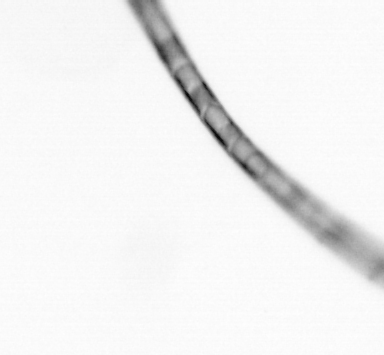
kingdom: Chromista
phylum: Ochrophyta
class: Bacillariophyceae
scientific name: Bacillariophyceae
